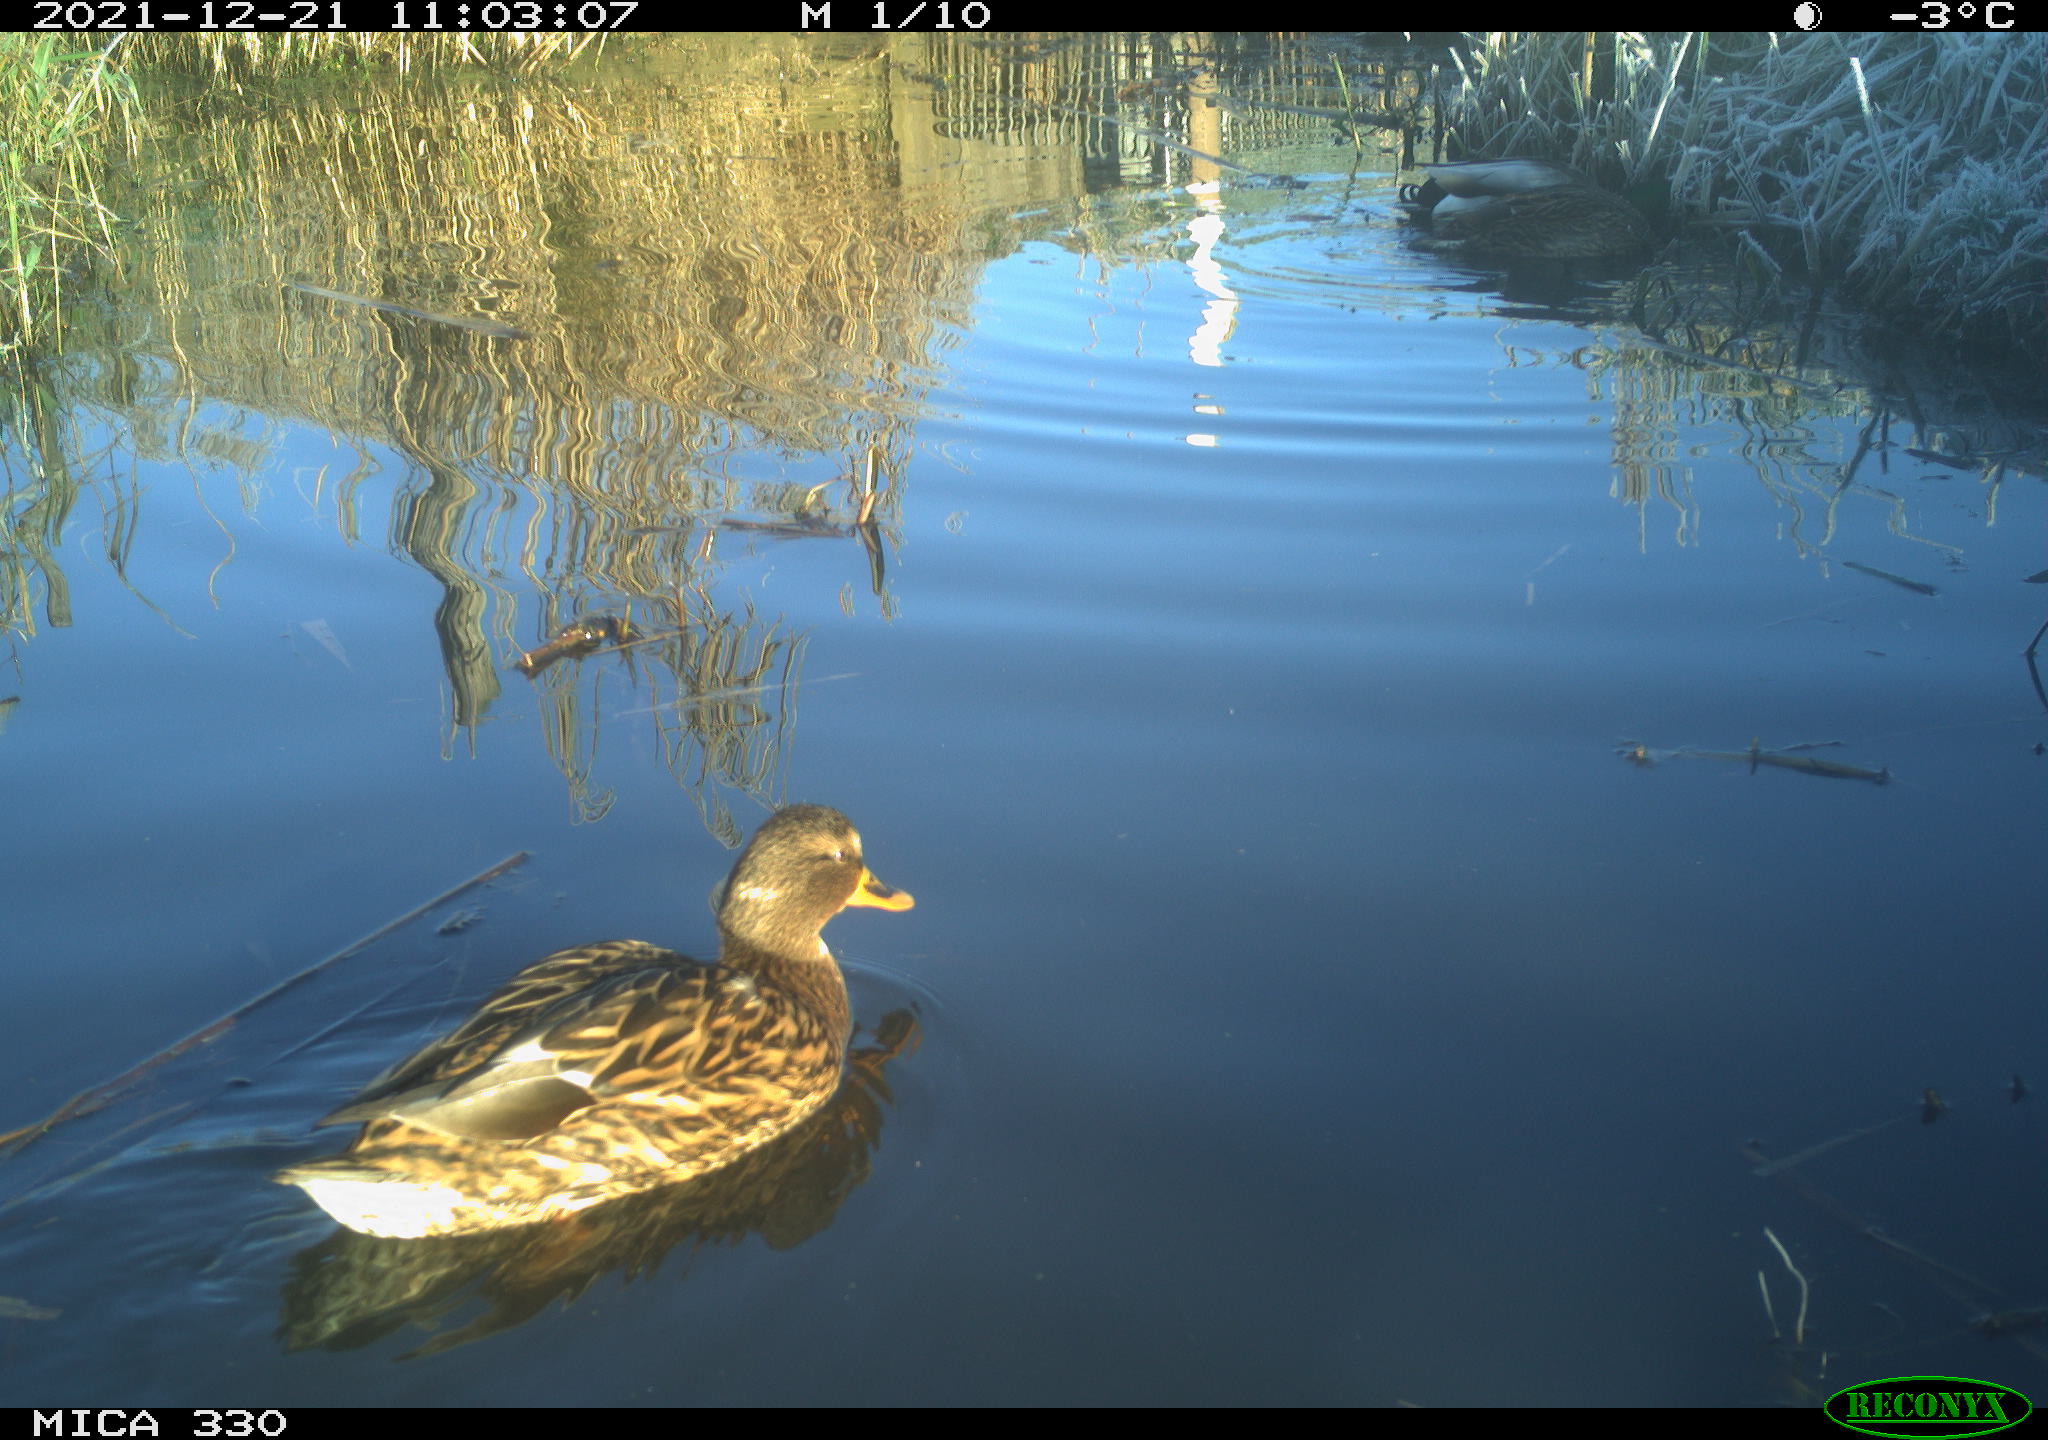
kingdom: Animalia
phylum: Chordata
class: Aves
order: Anseriformes
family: Anatidae
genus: Anas
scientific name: Anas platyrhynchos
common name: Mallard
